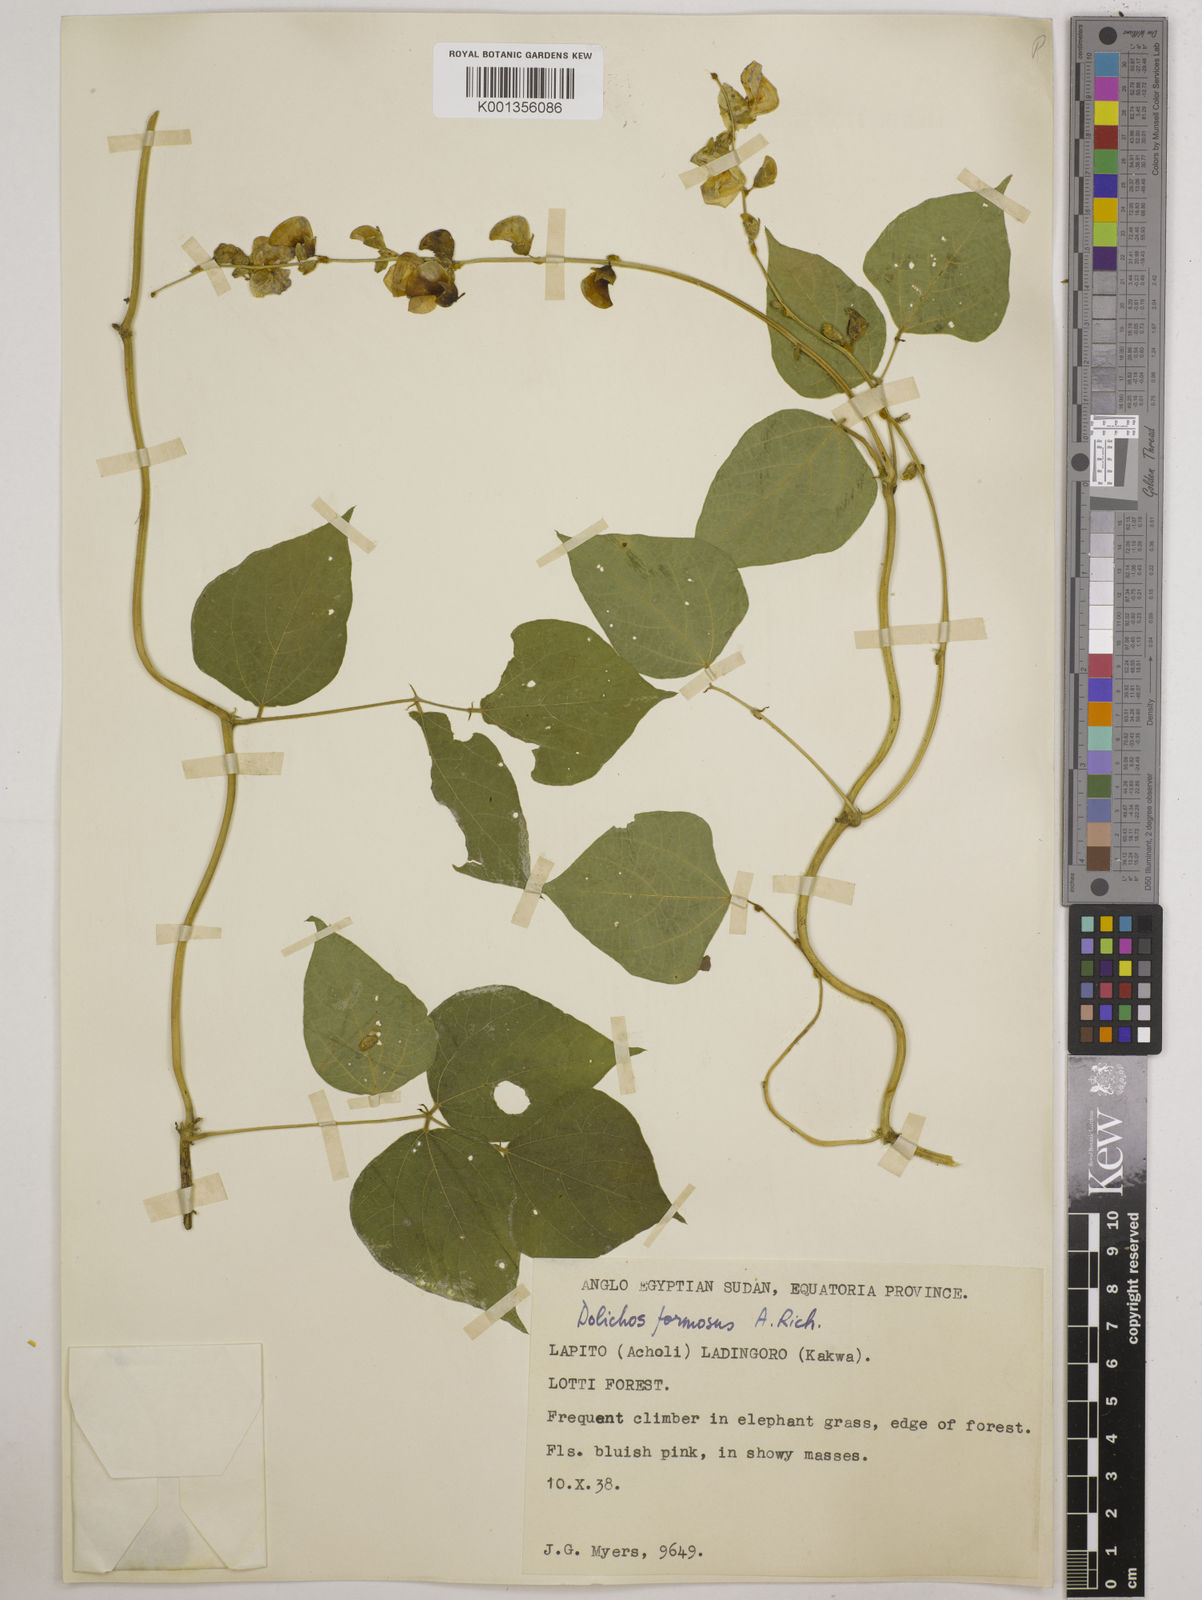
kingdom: Plantae
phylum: Tracheophyta
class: Magnoliopsida
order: Fabales
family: Fabaceae
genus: Lablab
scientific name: Lablab purpureus
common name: Lablab-bean
